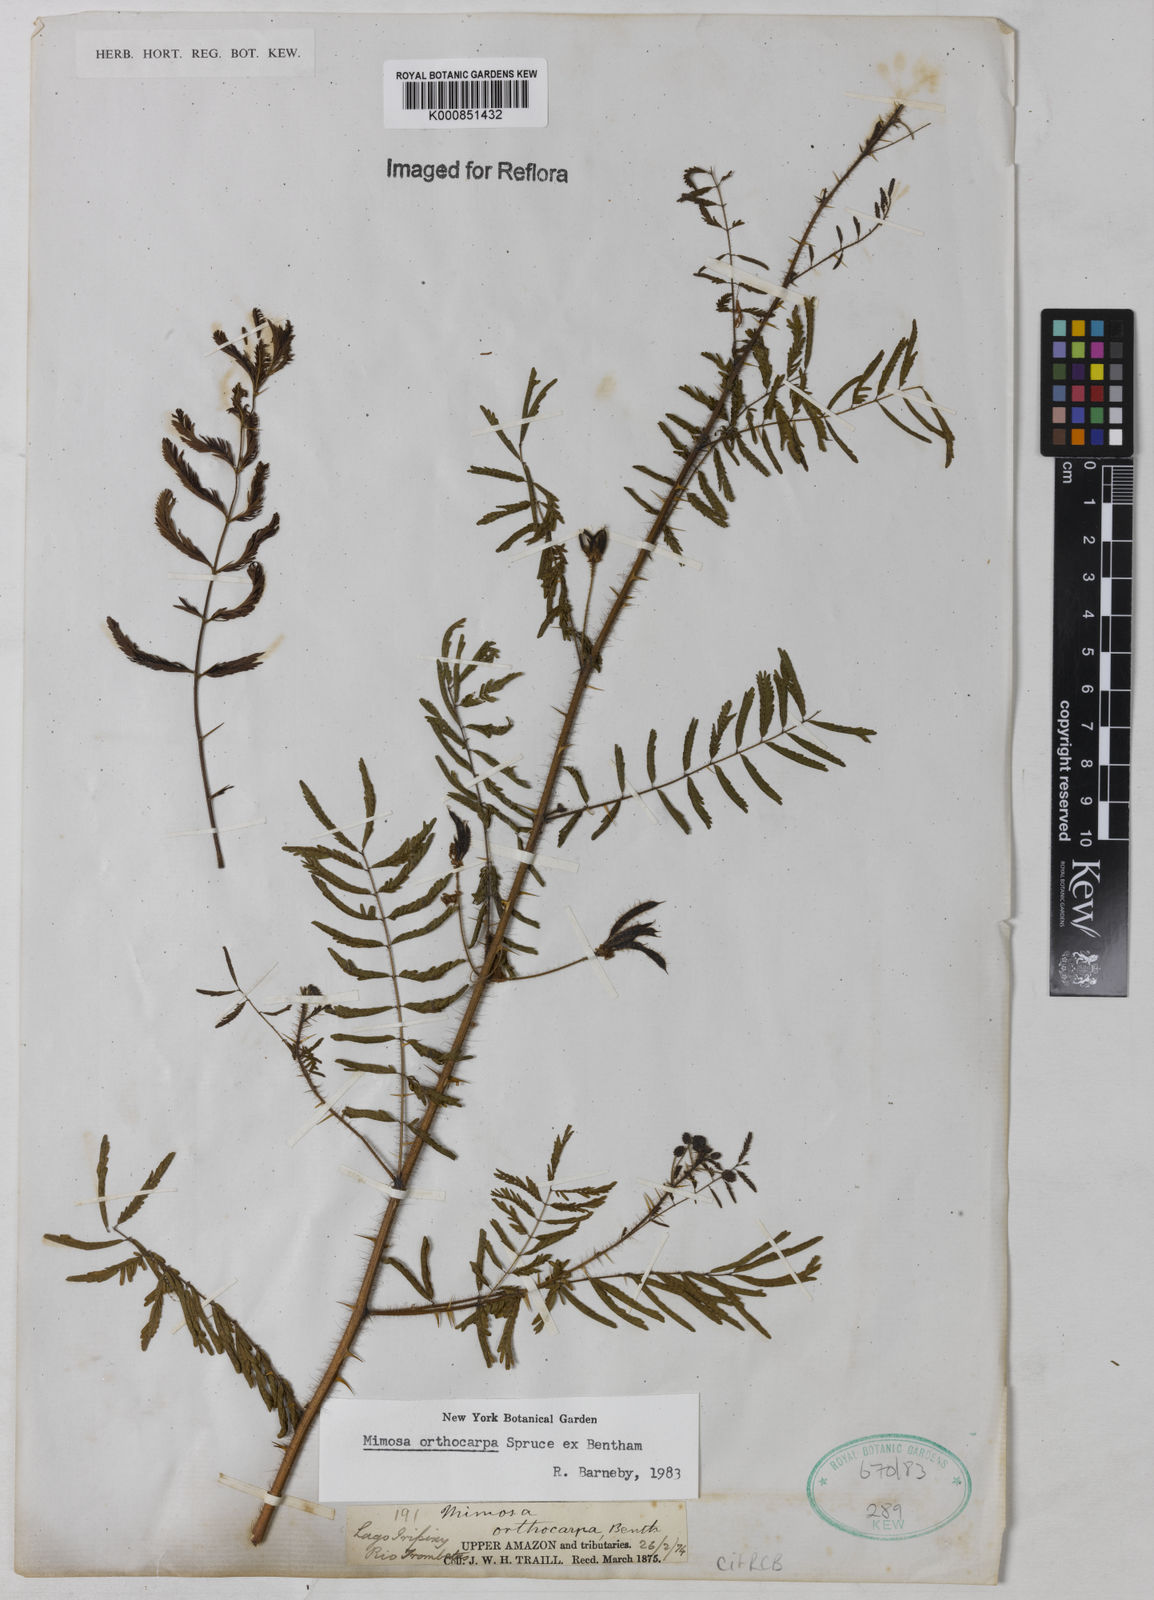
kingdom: Plantae
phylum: Tracheophyta
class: Magnoliopsida
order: Fabales
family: Fabaceae
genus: Mimosa
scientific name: Mimosa
